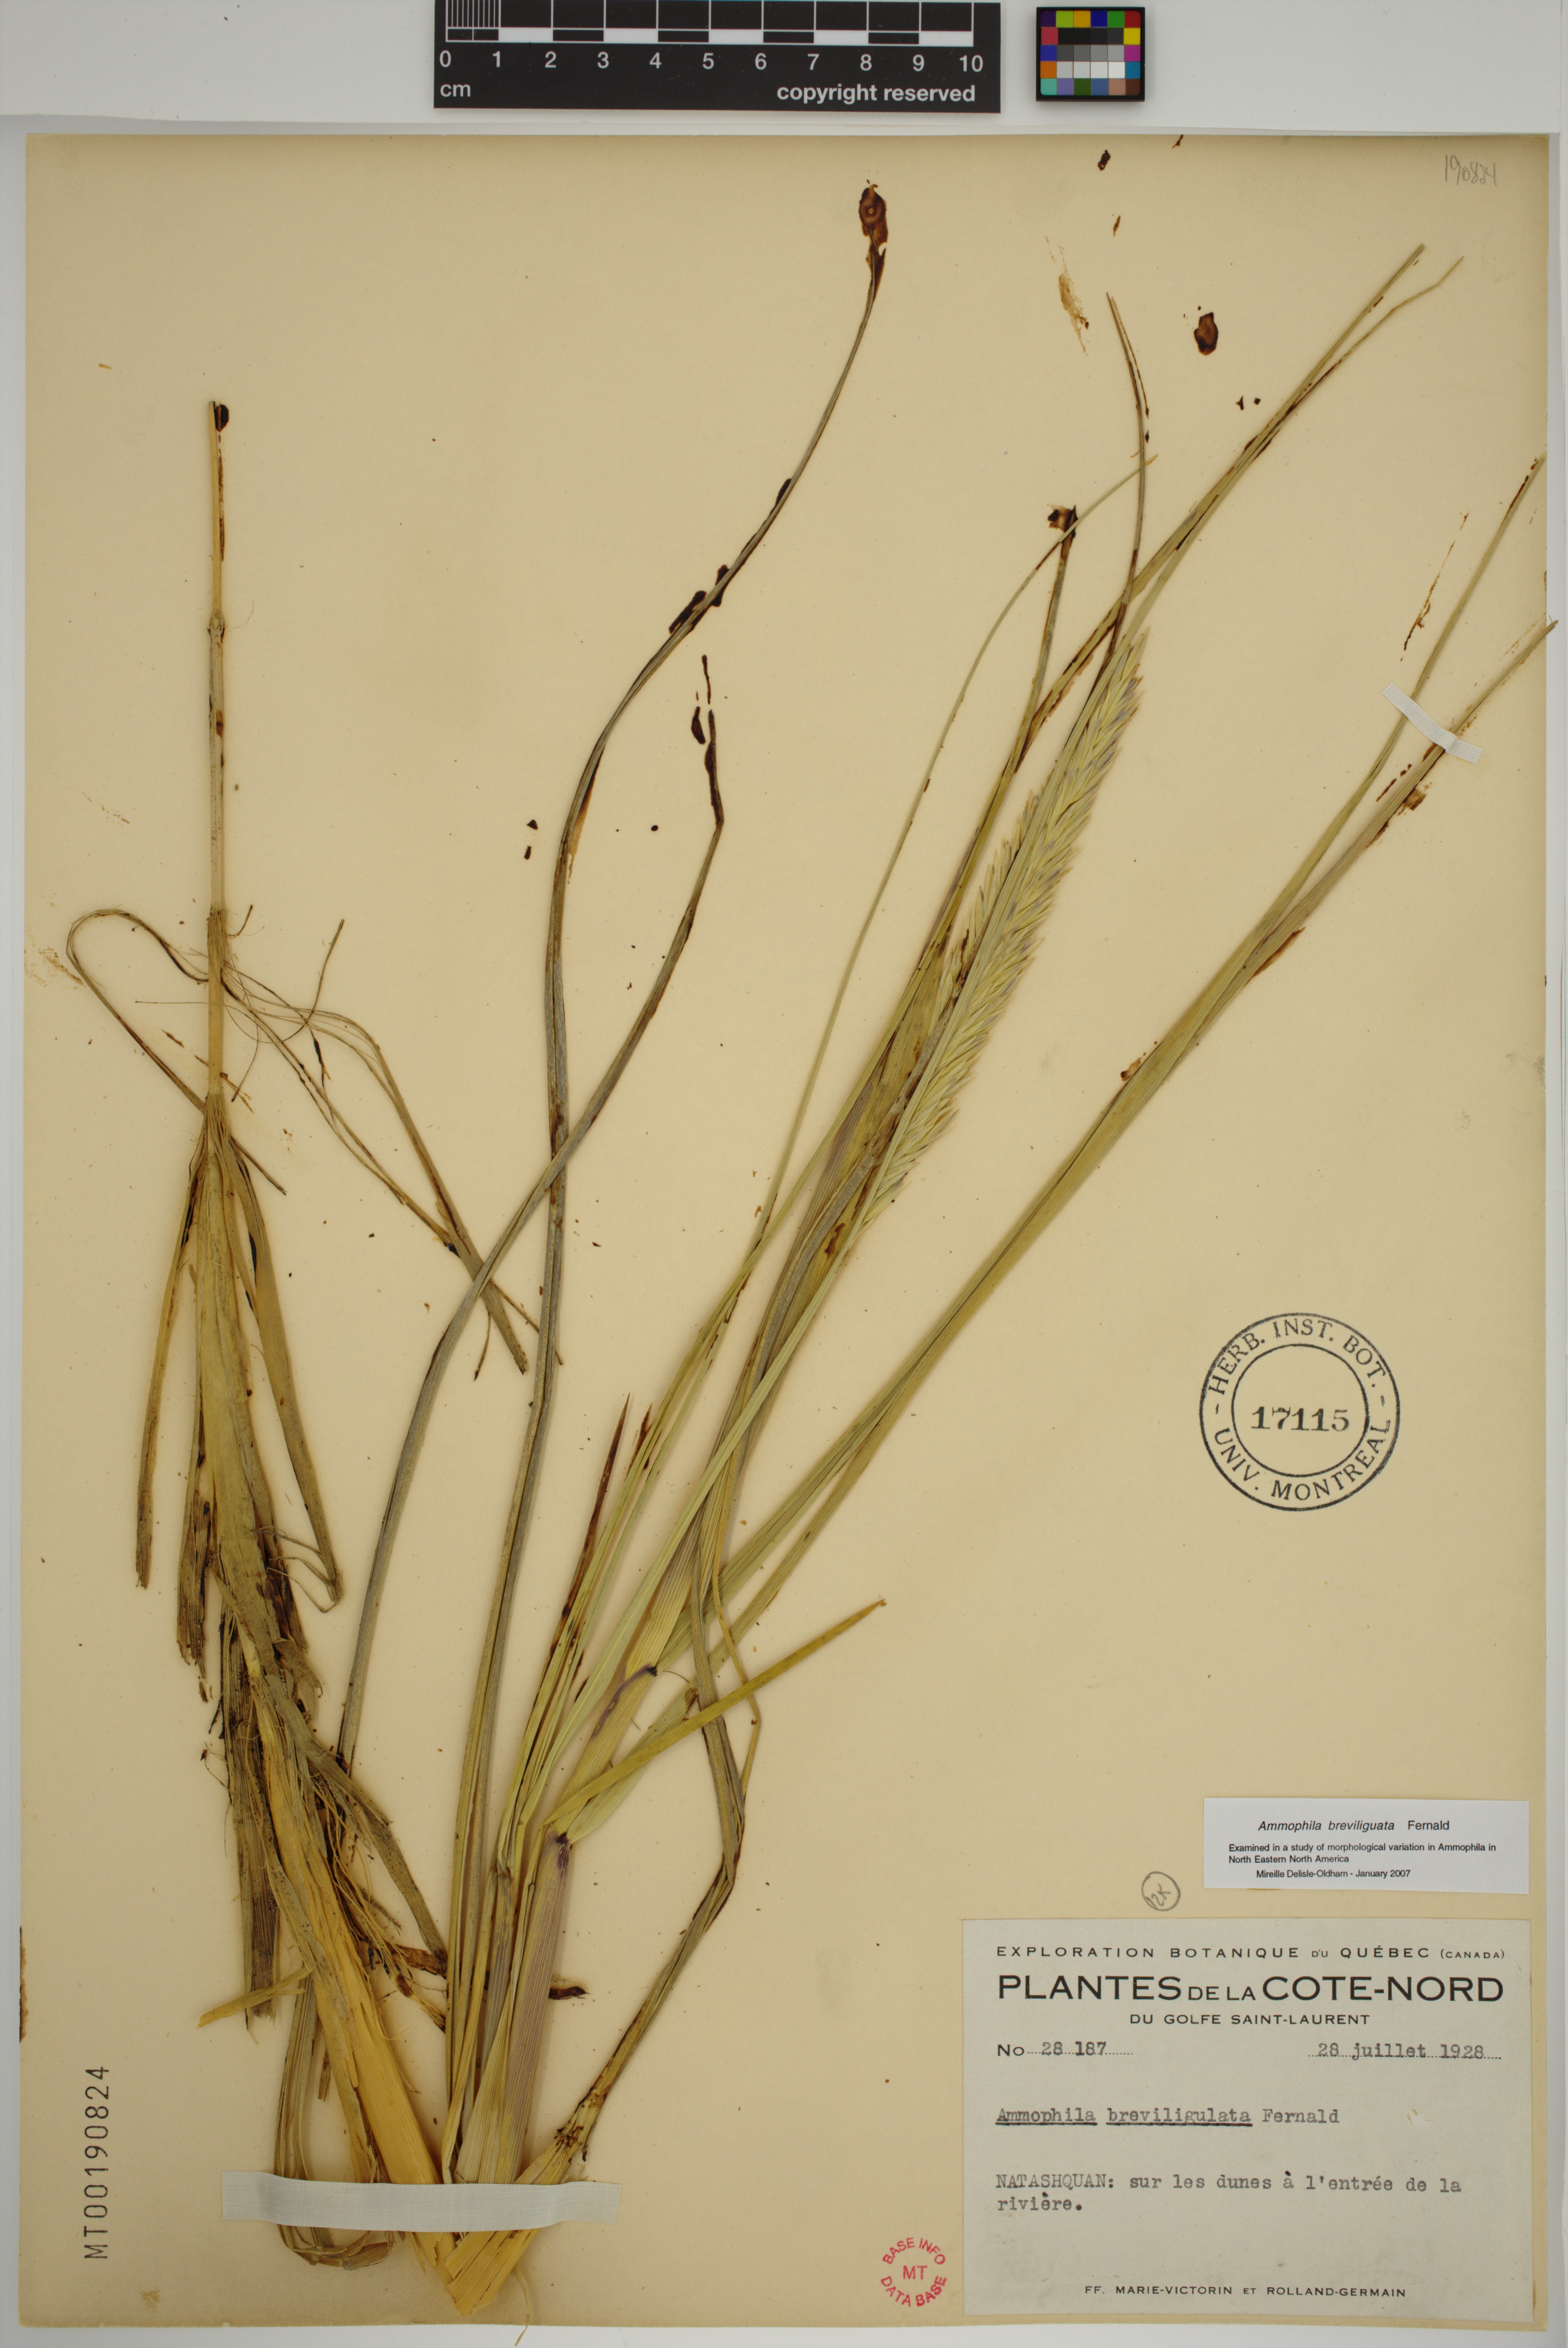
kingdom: Plantae
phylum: Tracheophyta
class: Liliopsida
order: Poales
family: Poaceae
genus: Calamagrostis
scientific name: Calamagrostis breviligulata
